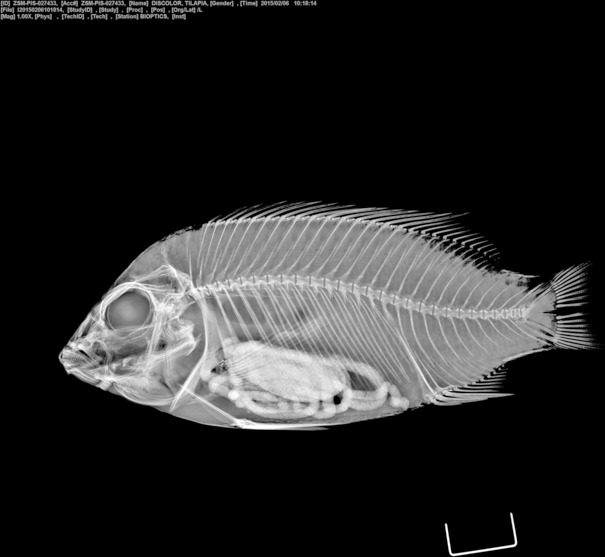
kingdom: Animalia
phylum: Chordata
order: Perciformes
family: Cichlidae
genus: Coptodon
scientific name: Coptodon discolor
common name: Guinean tilapia
